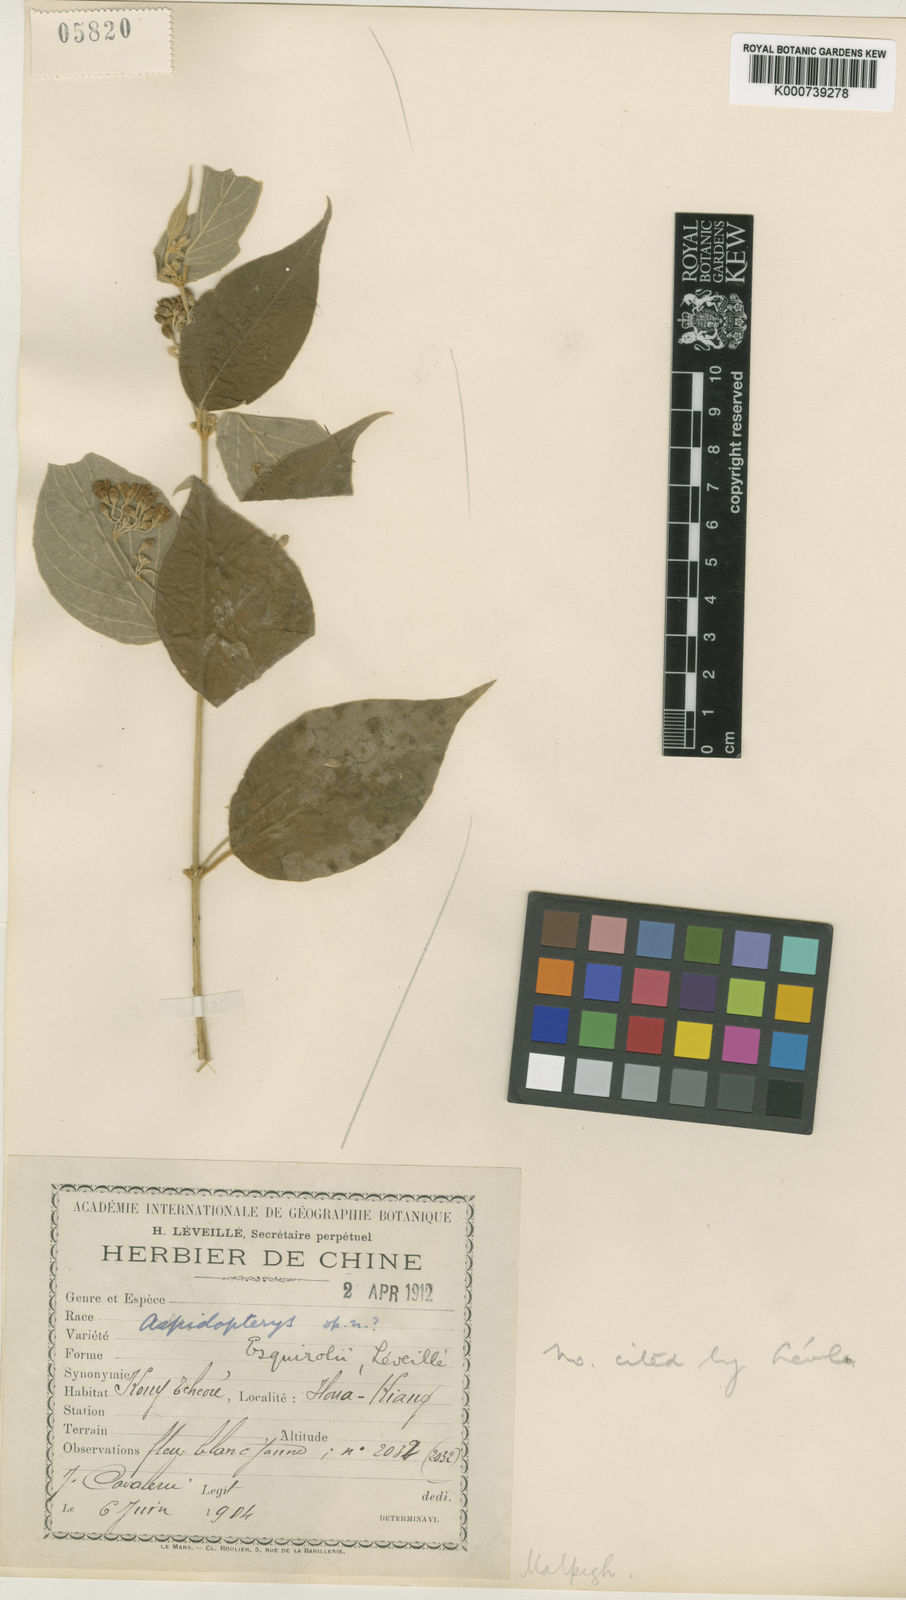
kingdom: Plantae
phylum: Tracheophyta
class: Magnoliopsida
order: Malpighiales
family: Malpighiaceae
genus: Aspidopterys
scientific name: Aspidopterys
